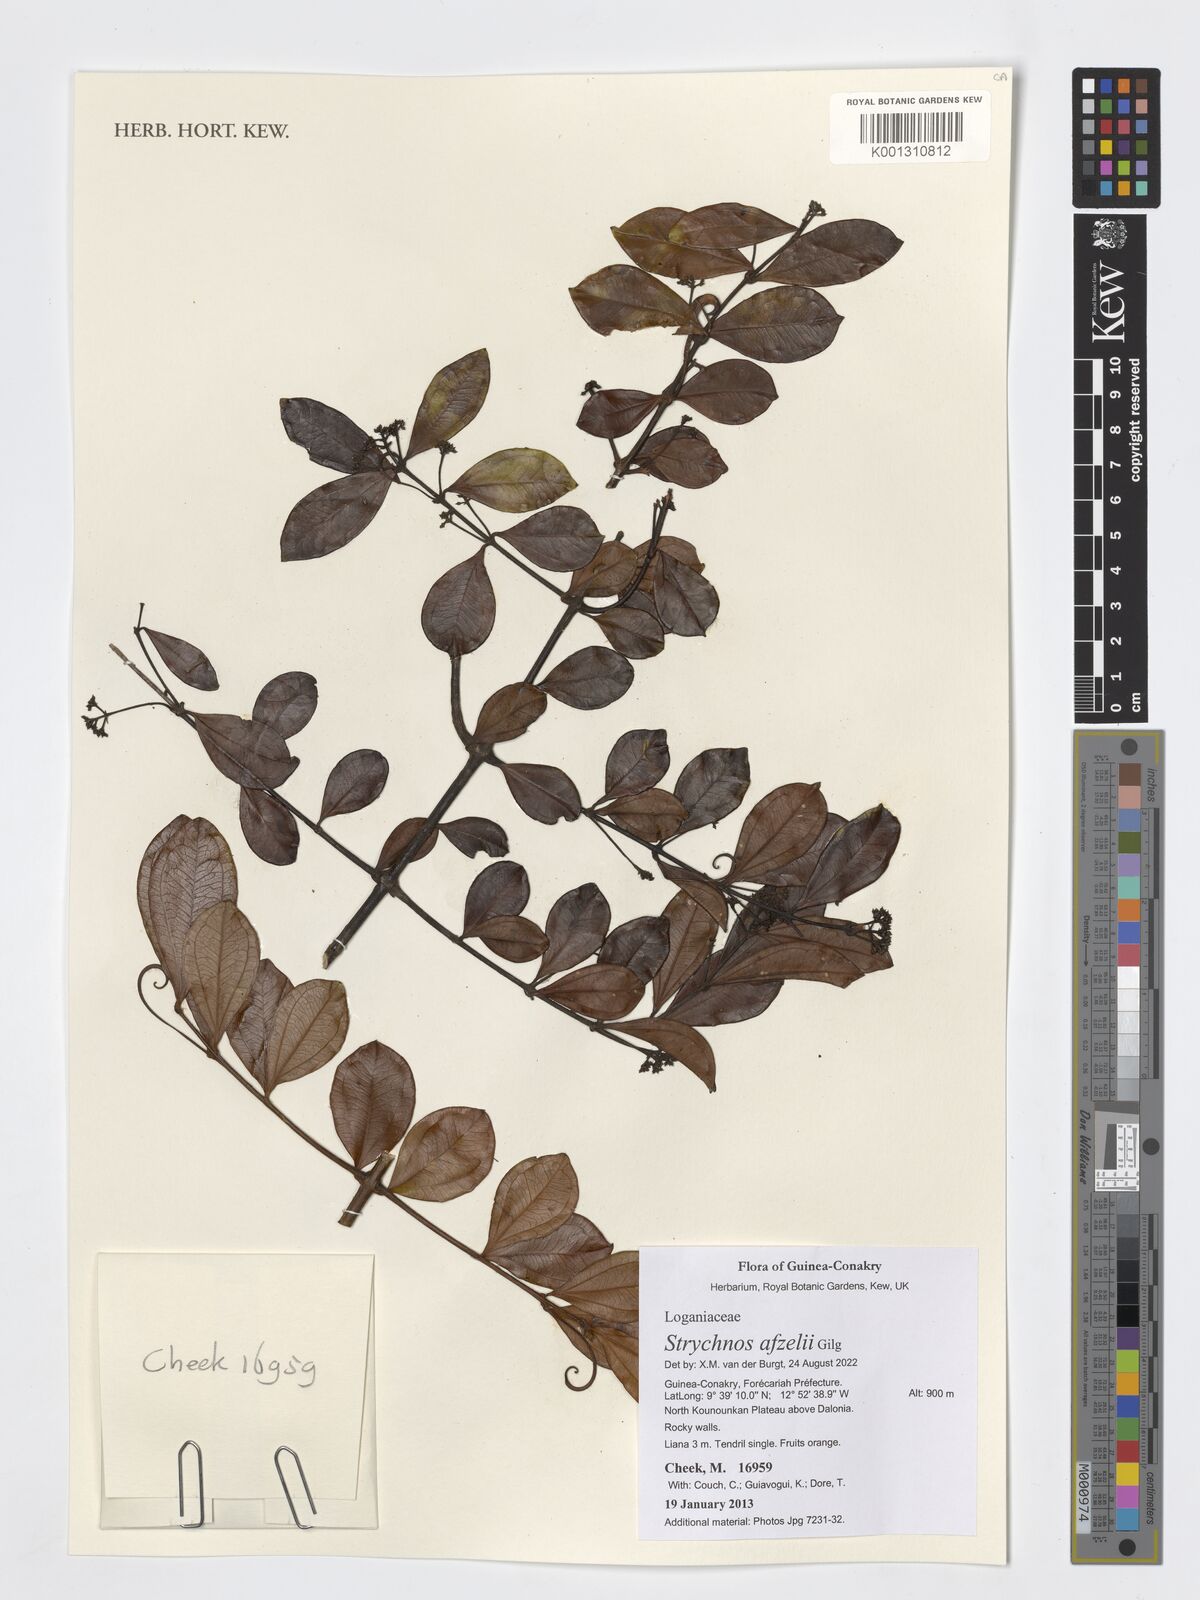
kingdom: Plantae
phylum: Tracheophyta
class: Magnoliopsida
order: Gentianales
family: Loganiaceae
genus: Strychnos
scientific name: Strychnos afzelii
